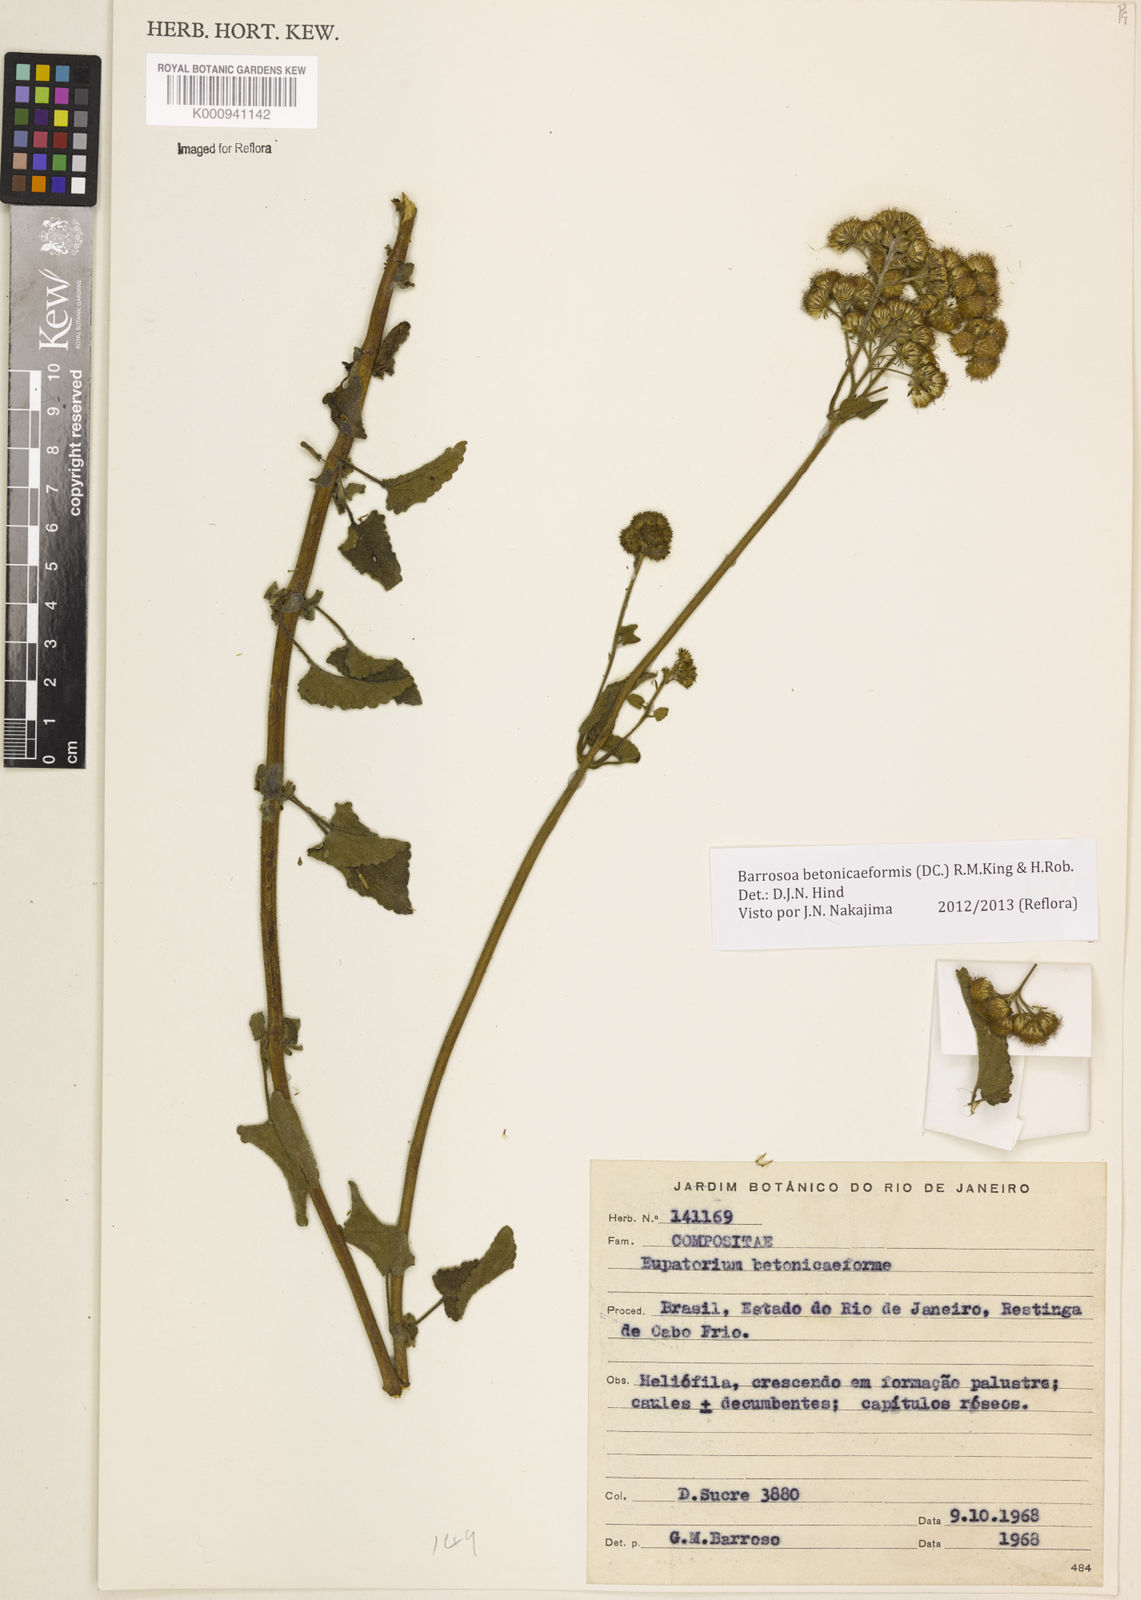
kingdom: Plantae
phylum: Tracheophyta
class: Magnoliopsida
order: Asterales
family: Asteraceae
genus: Barrosoa
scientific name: Barrosoa betoniciformis
